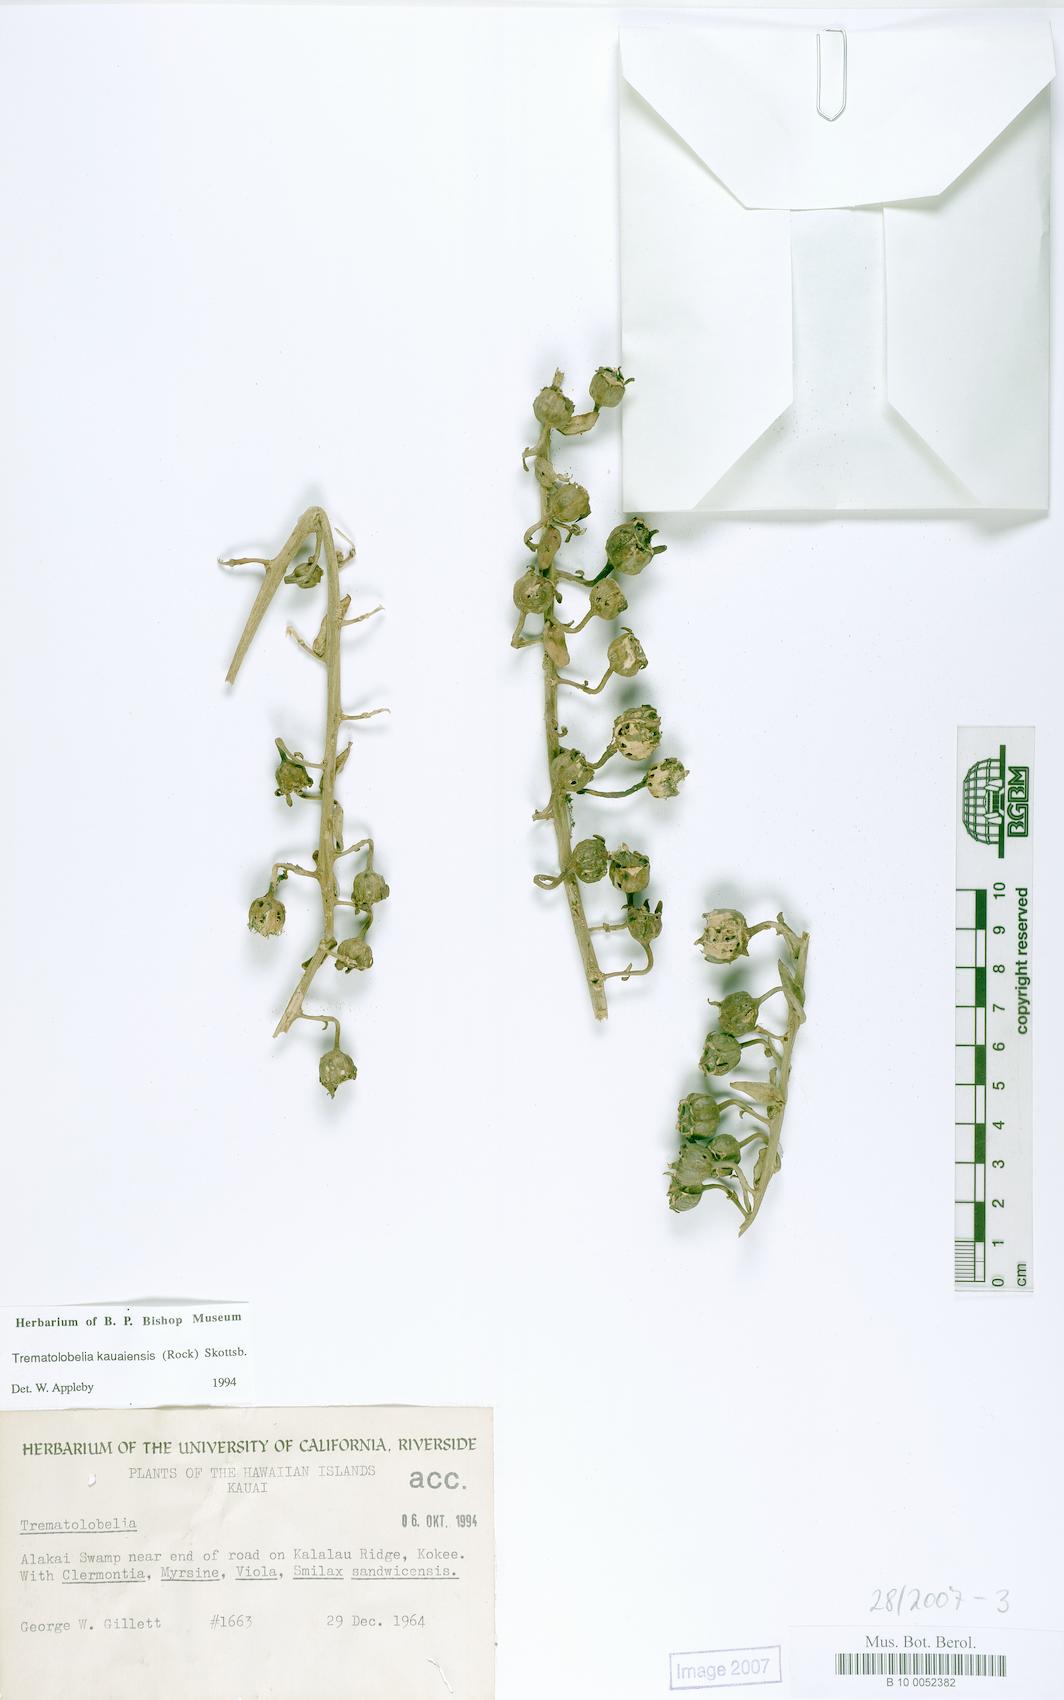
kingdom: Plantae
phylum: Tracheophyta
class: Magnoliopsida
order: Asterales
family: Campanulaceae
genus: Trematolobelia
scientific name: Trematolobelia kauaiensis
